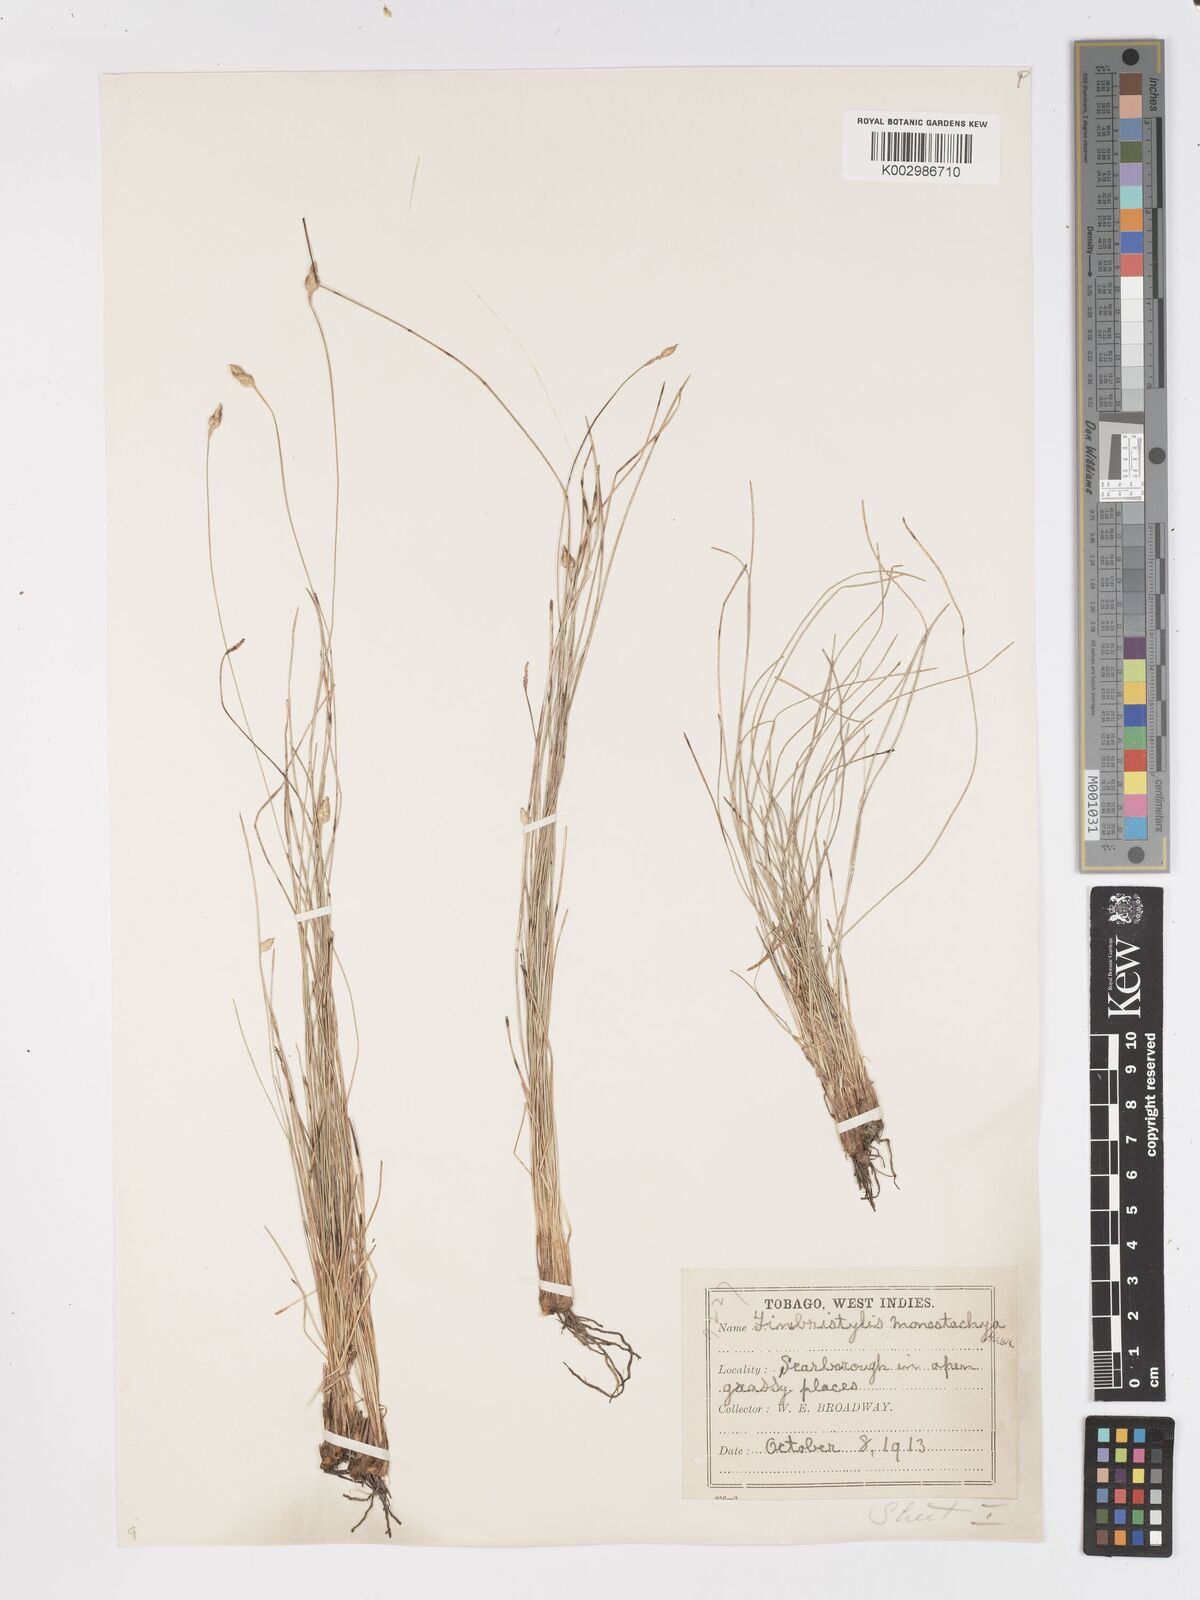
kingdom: Plantae
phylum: Tracheophyta
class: Liliopsida
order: Poales
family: Cyperaceae
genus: Fimbristylis
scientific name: Fimbristylis
